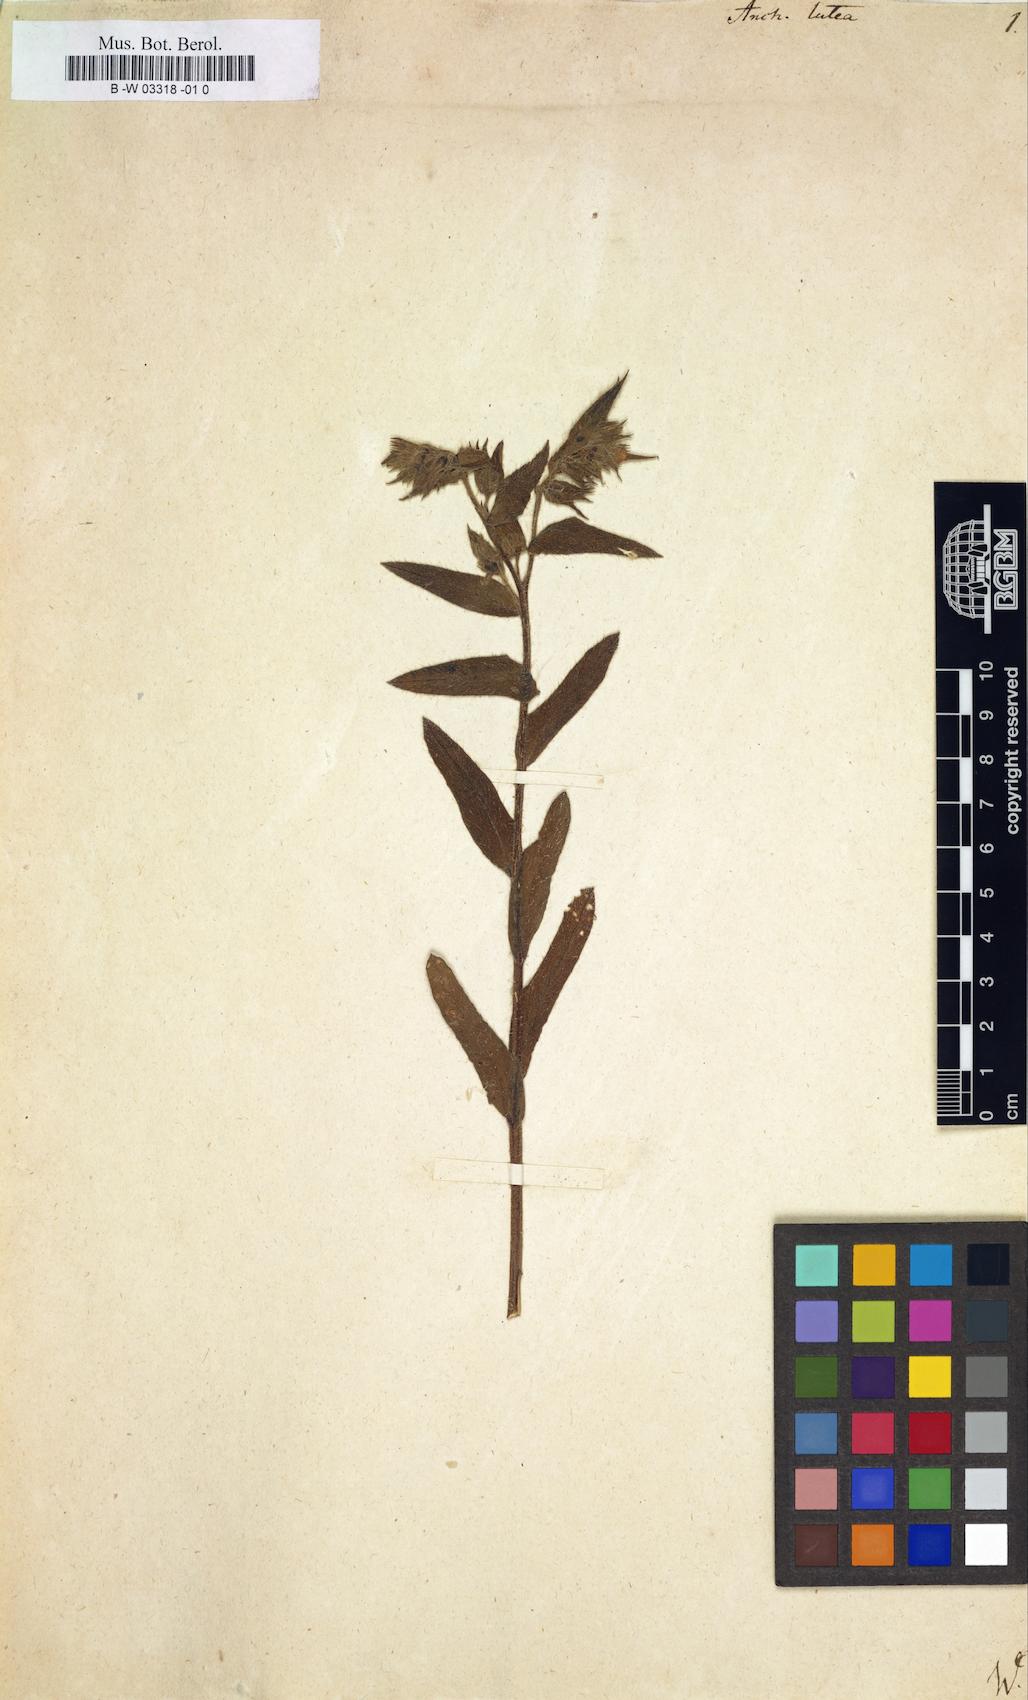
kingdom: Plantae
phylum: Tracheophyta
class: Magnoliopsida
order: Boraginales
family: Boraginaceae
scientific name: Boraginaceae
